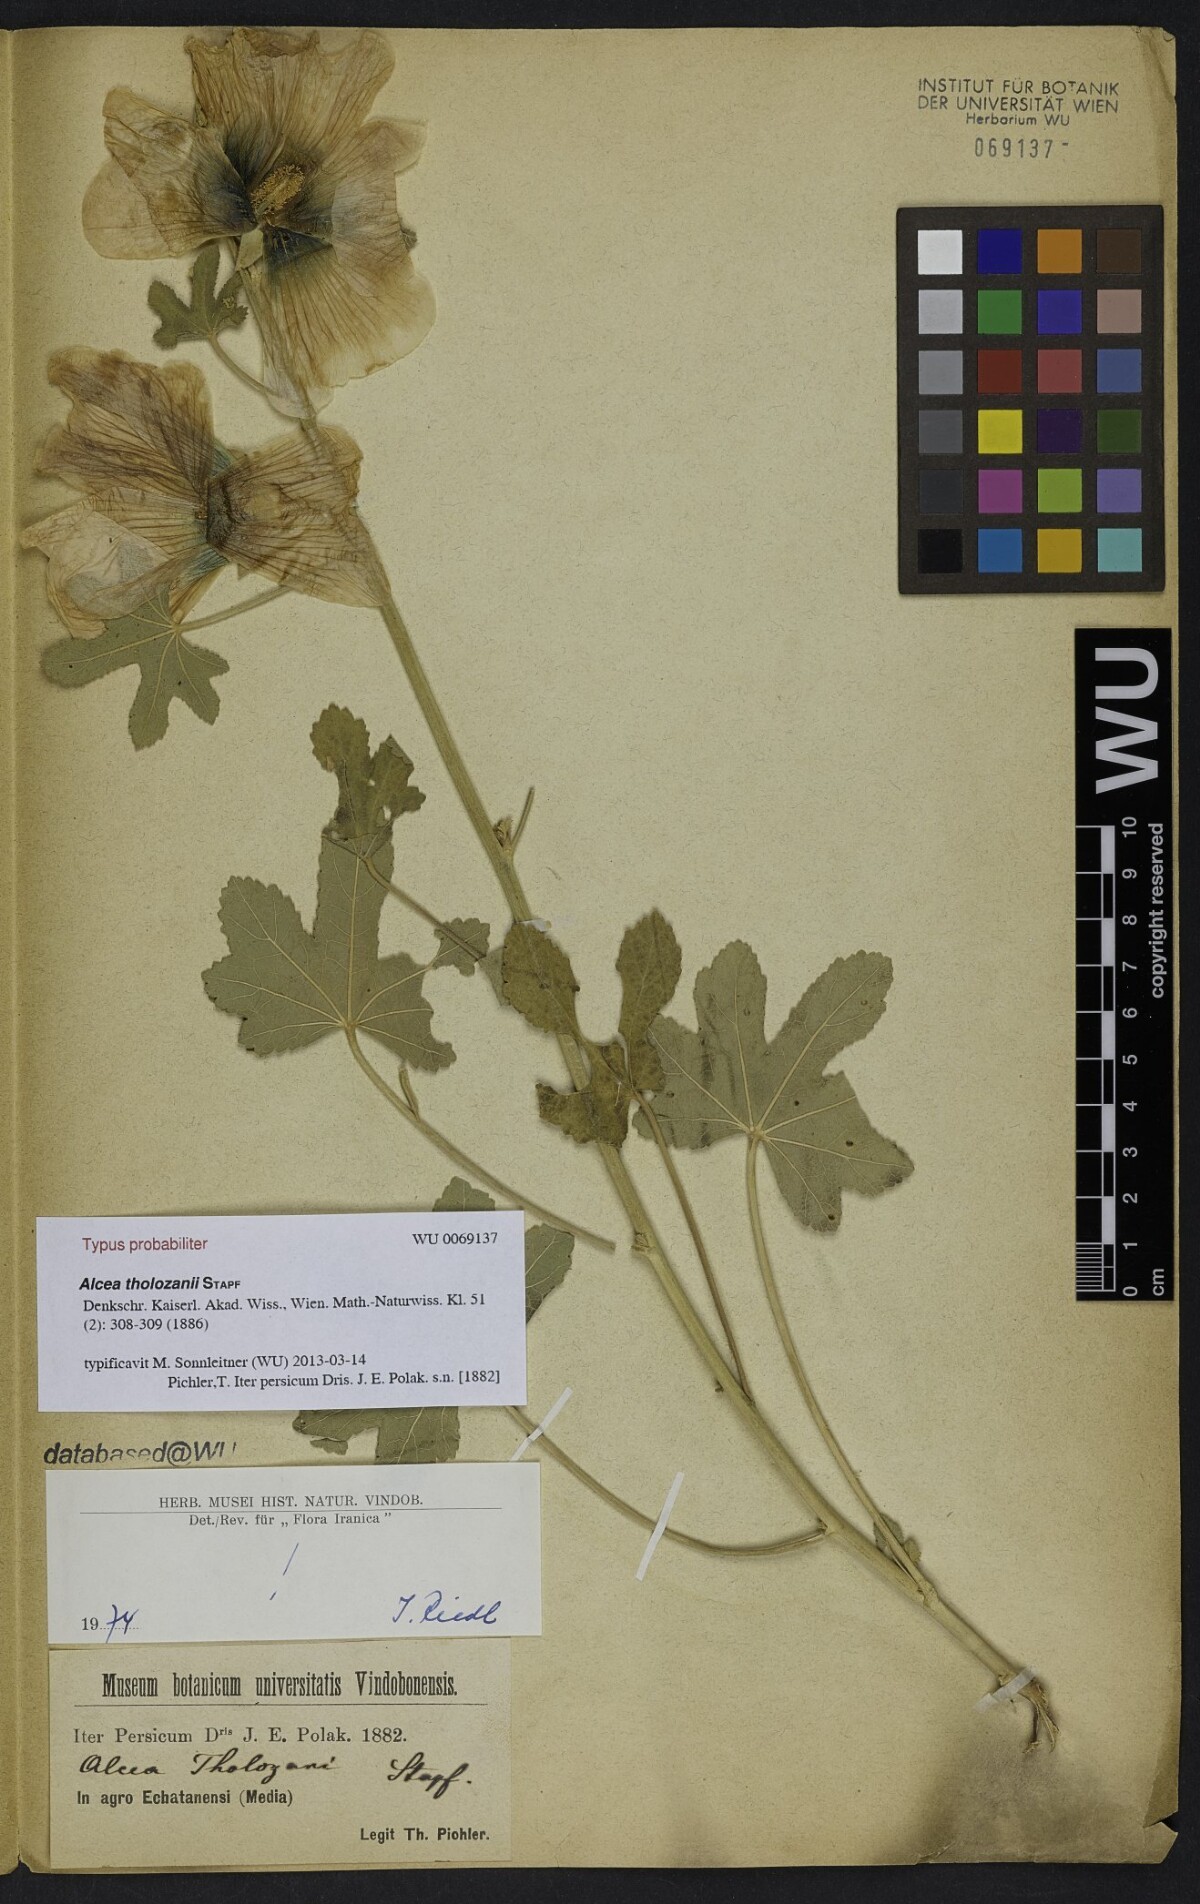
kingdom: Plantae
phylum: Tracheophyta
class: Magnoliopsida
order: Malvales
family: Malvaceae
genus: Alcea
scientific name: Alcea tholozani
